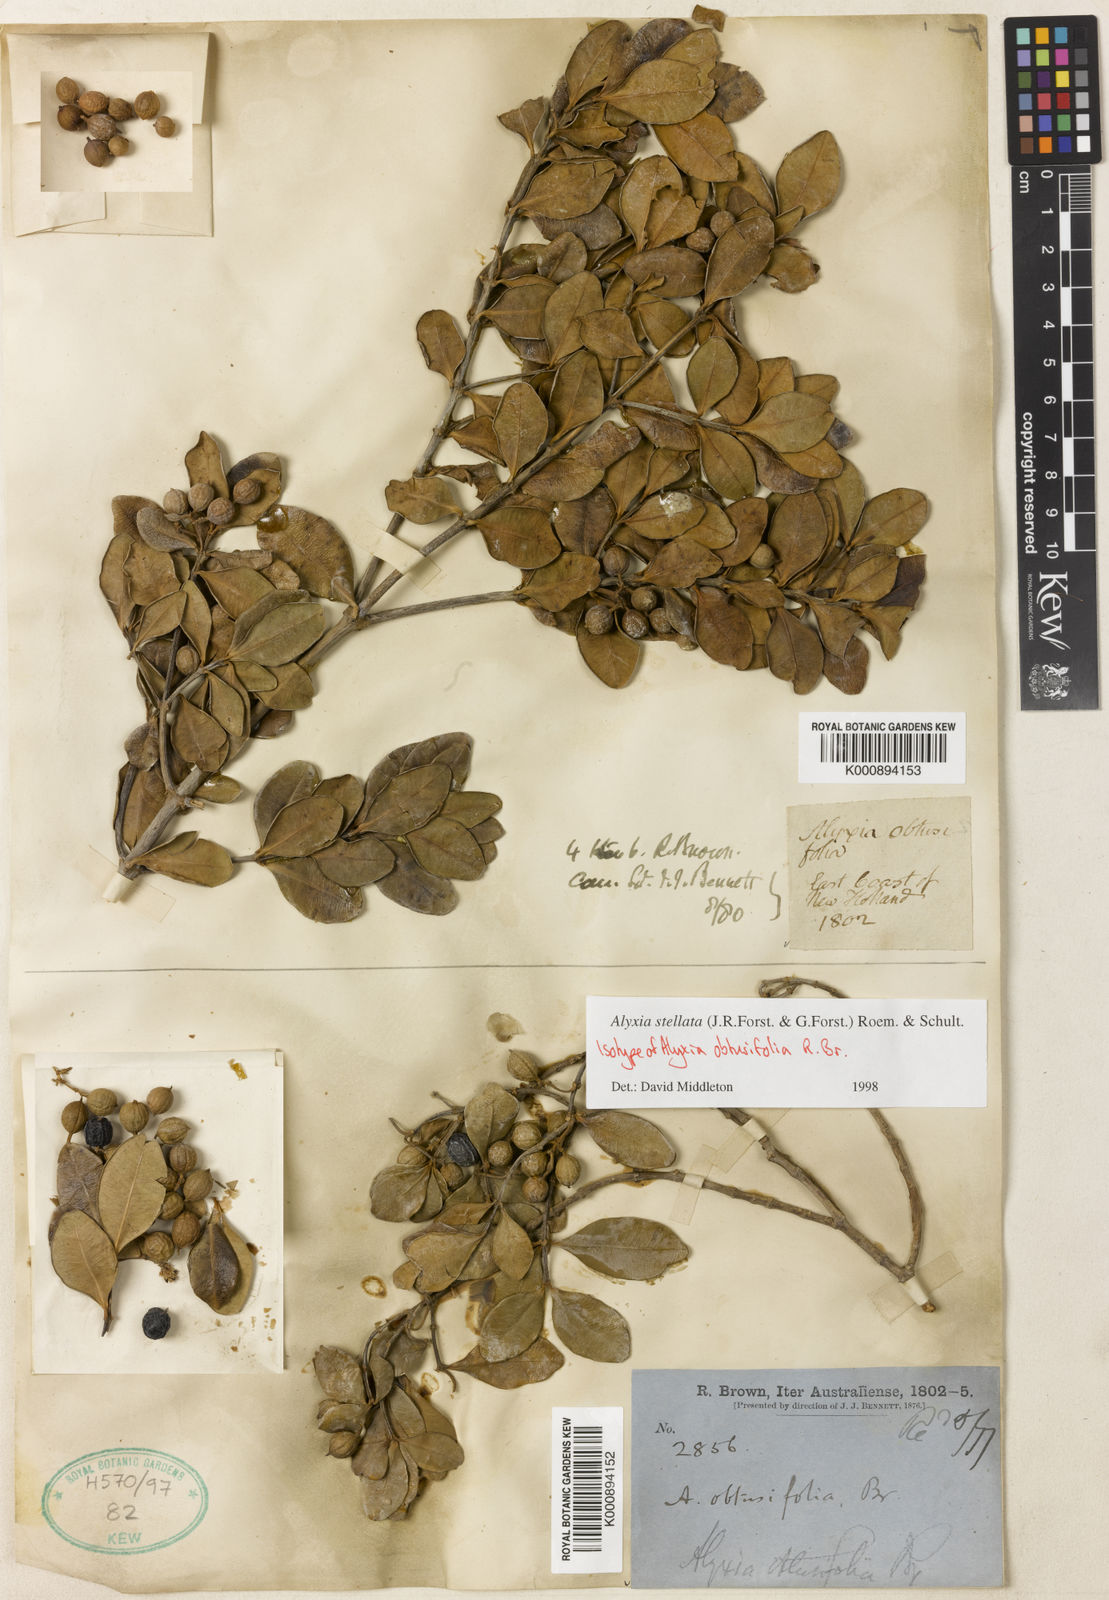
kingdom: Plantae
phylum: Tracheophyta
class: Magnoliopsida
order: Gentianales
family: Apocynaceae
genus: Alyxia
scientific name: Alyxia stellata
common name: Maile
